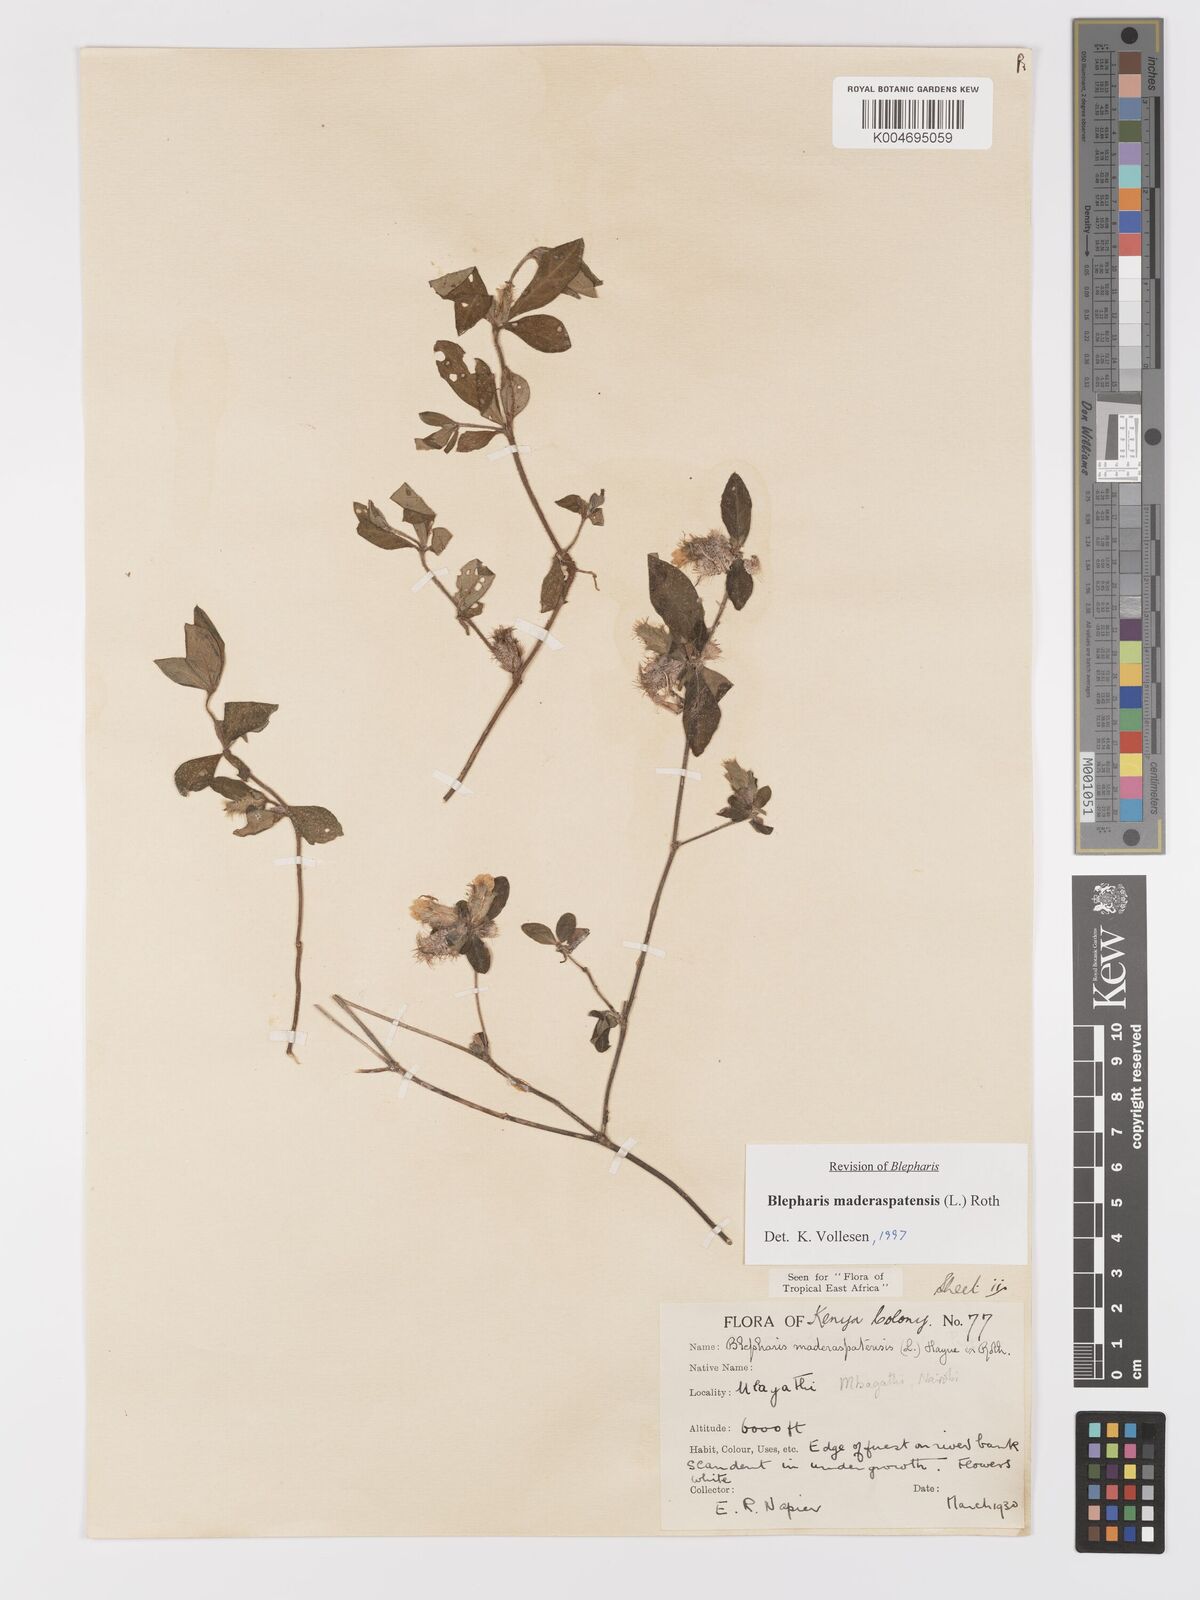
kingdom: Plantae
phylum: Tracheophyta
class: Magnoliopsida
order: Lamiales
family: Acanthaceae
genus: Blepharis
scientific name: Blepharis maderaspatensis
